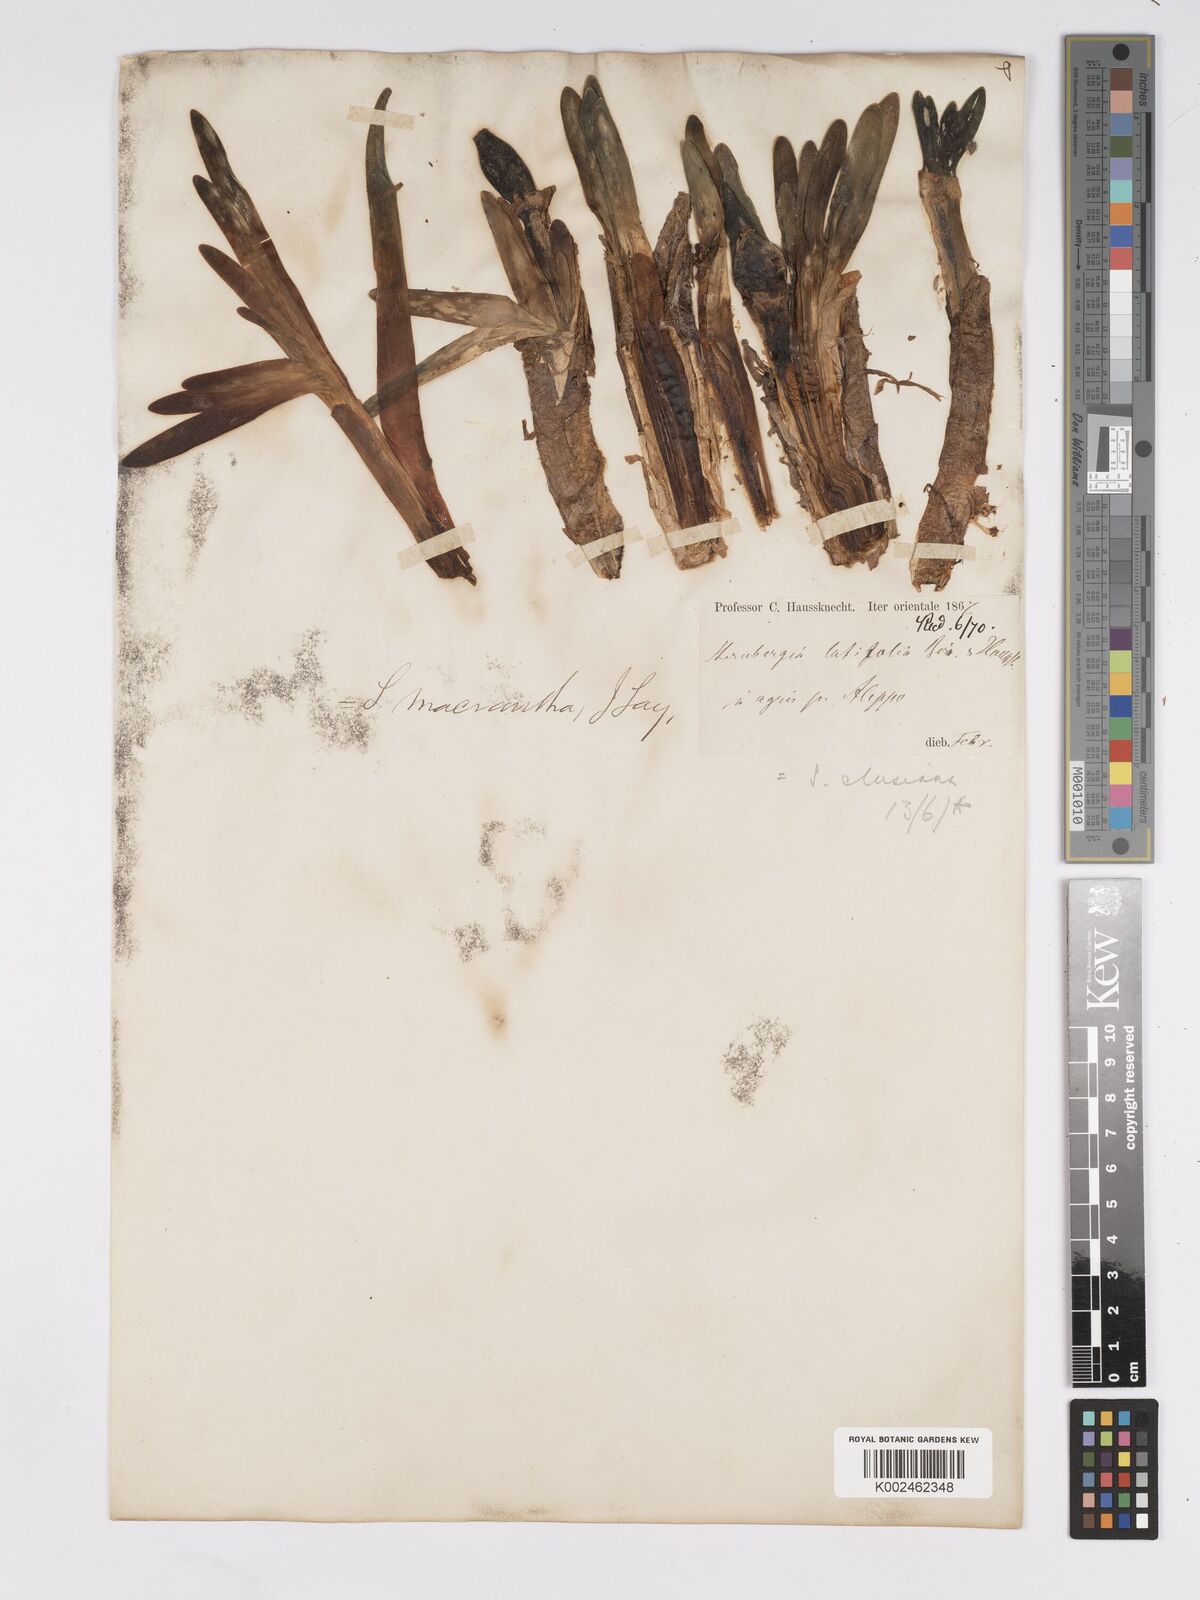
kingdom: Plantae
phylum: Tracheophyta
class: Liliopsida
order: Asparagales
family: Amaryllidaceae
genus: Sternbergia
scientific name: Sternbergia clusiana
